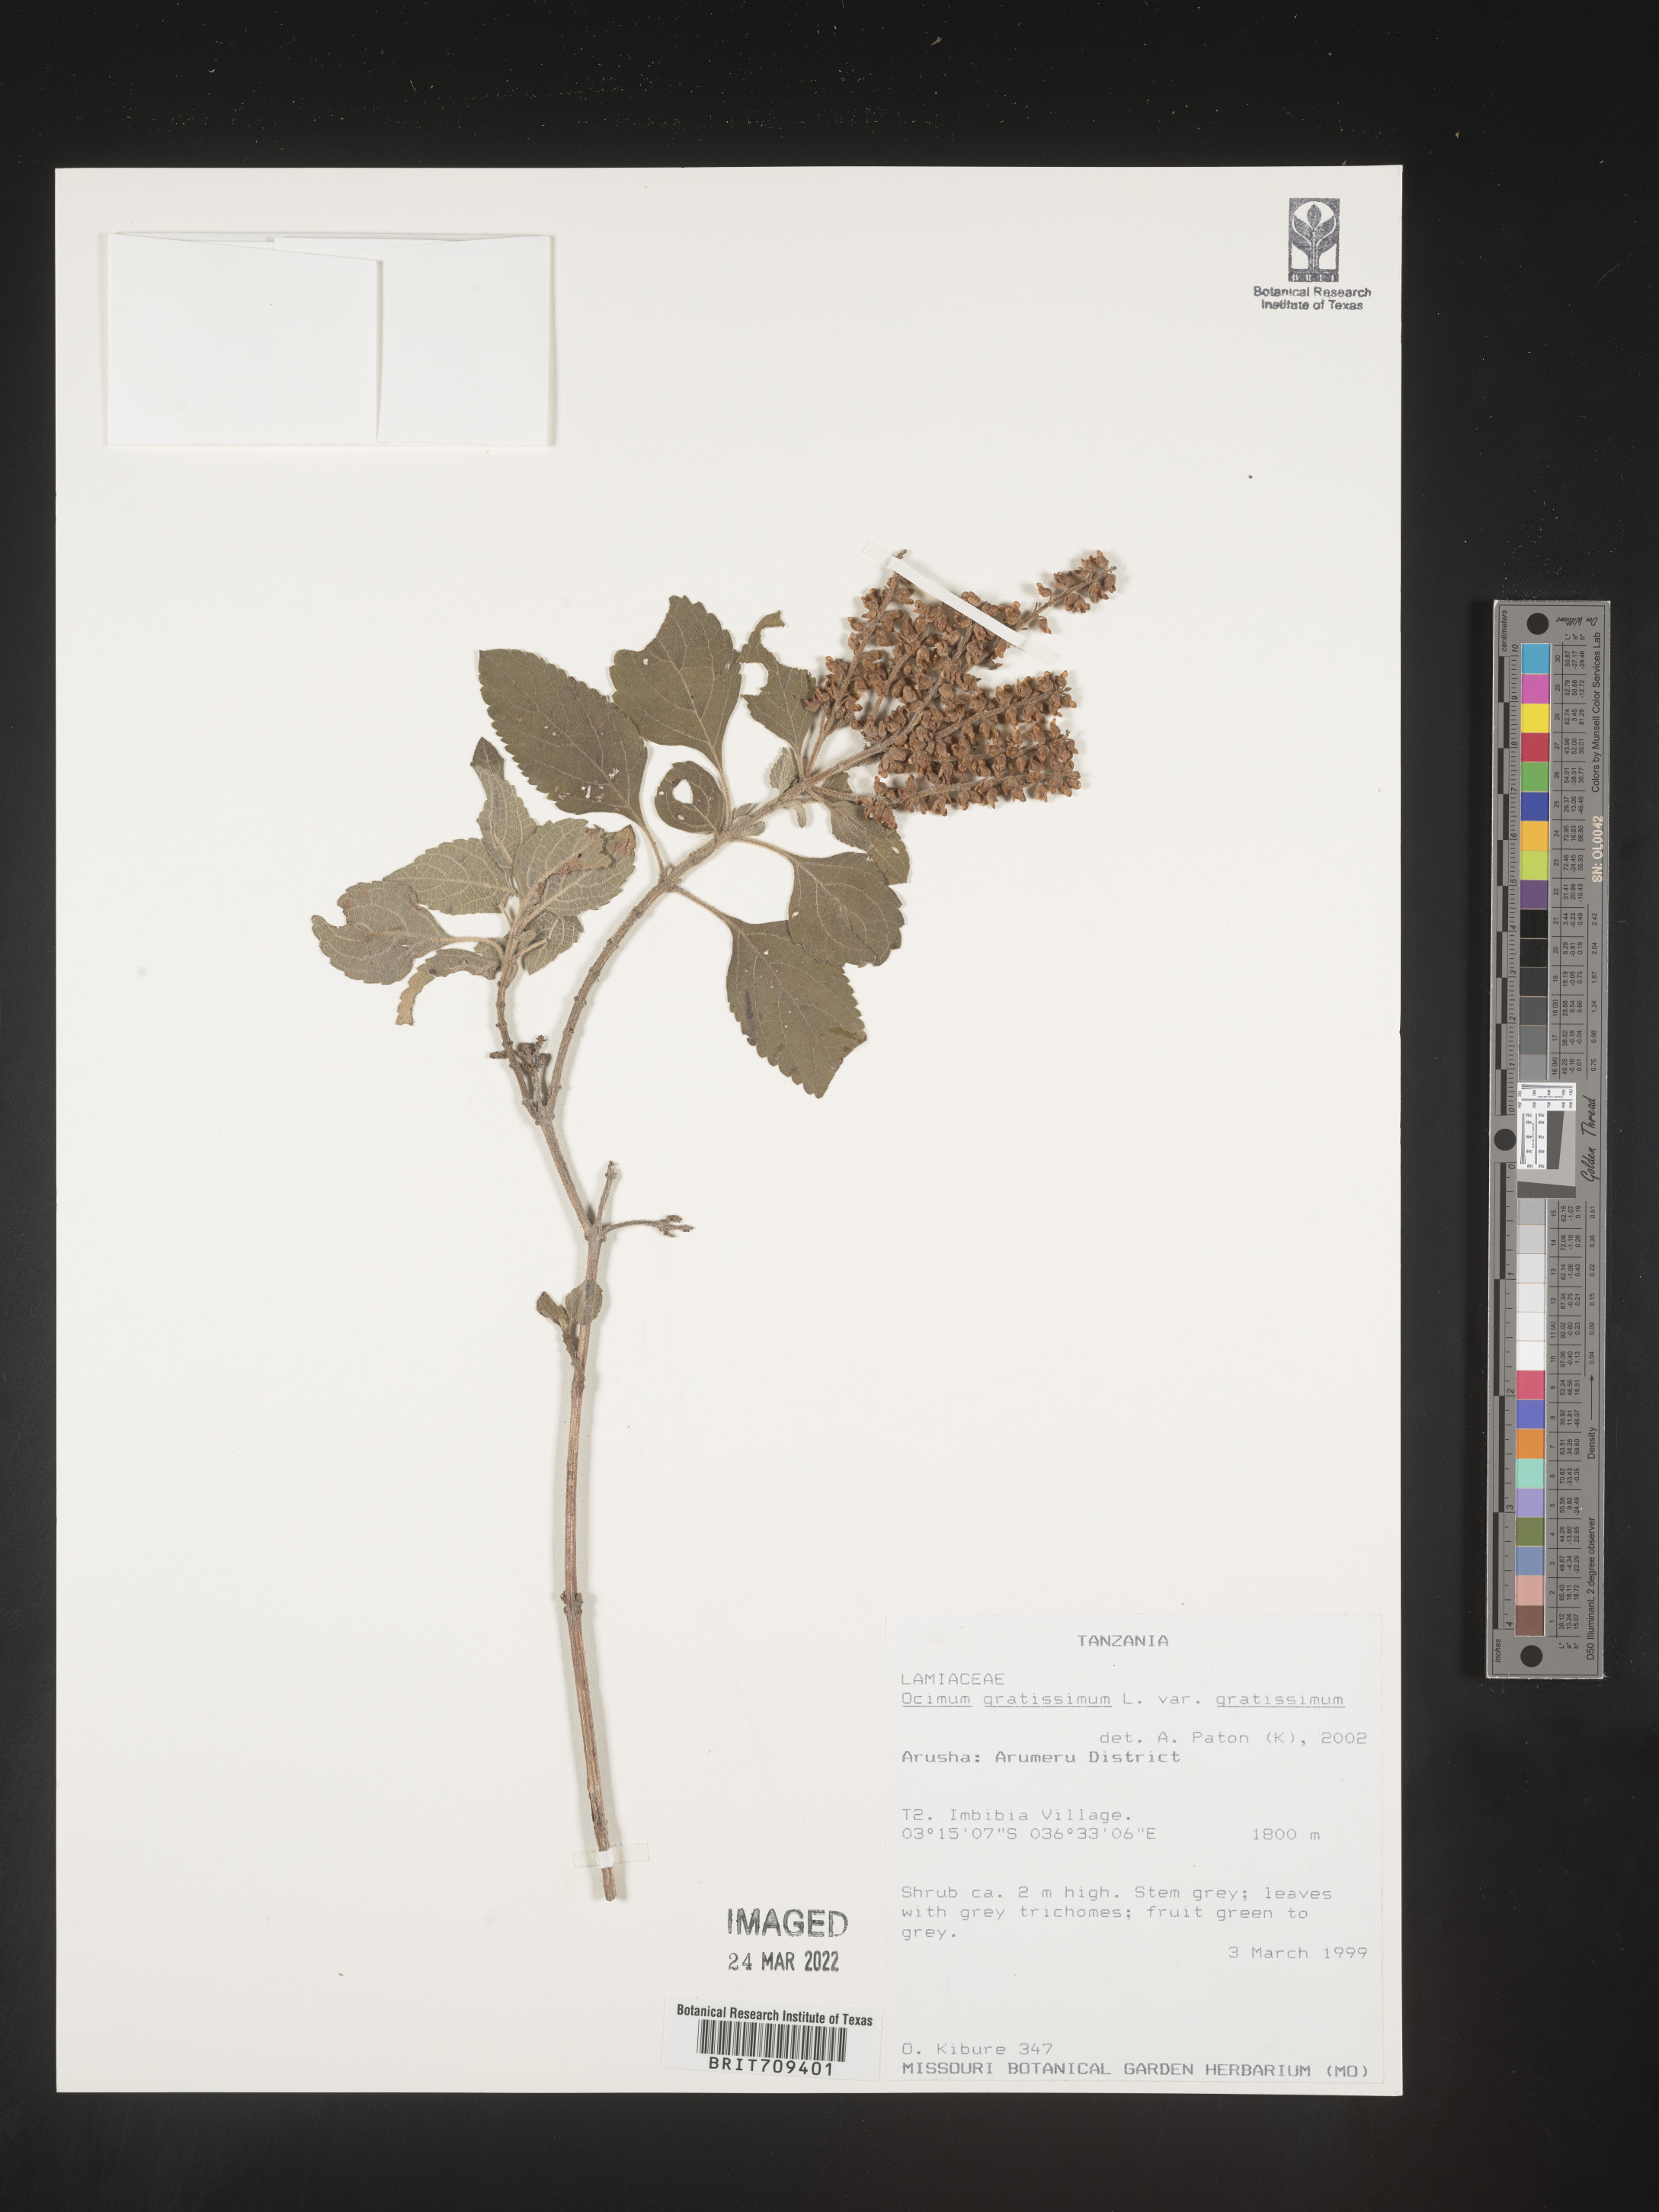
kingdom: Plantae
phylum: Tracheophyta
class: Magnoliopsida
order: Lamiales
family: Lamiaceae
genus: Ocimum
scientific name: Ocimum
